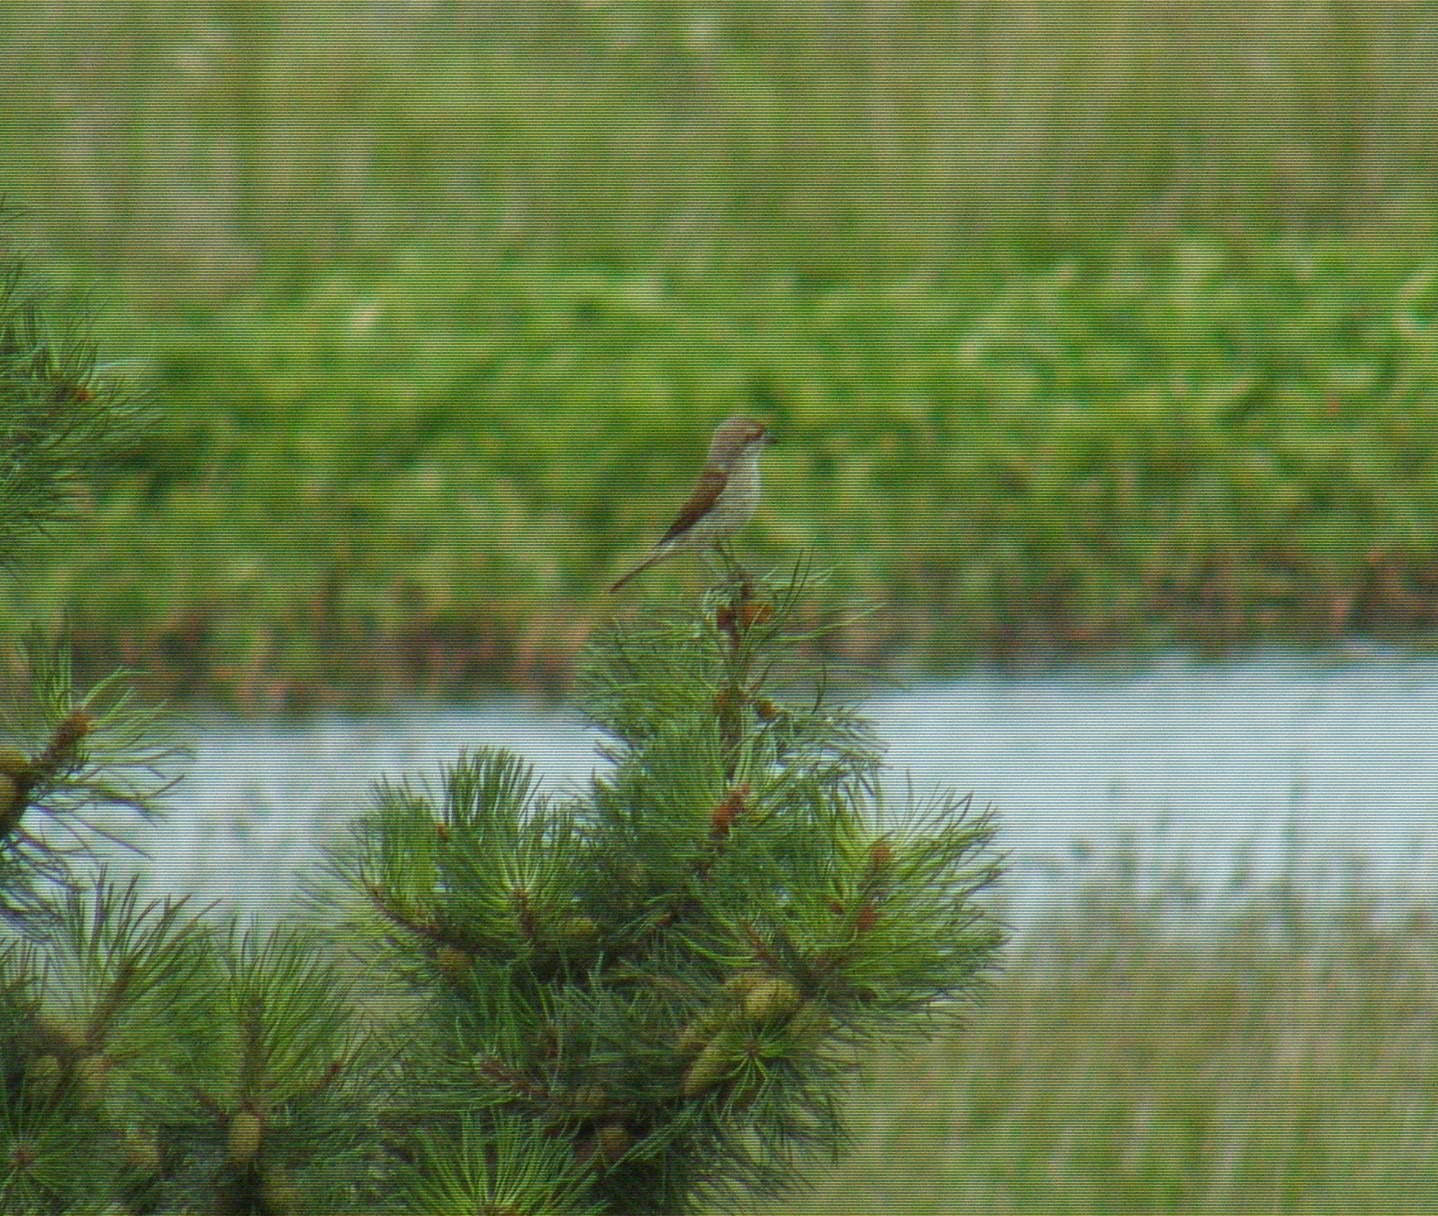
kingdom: Animalia
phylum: Chordata
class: Aves
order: Passeriformes
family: Laniidae
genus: Lanius
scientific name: Lanius collurio
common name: Rødrygget tornskade
